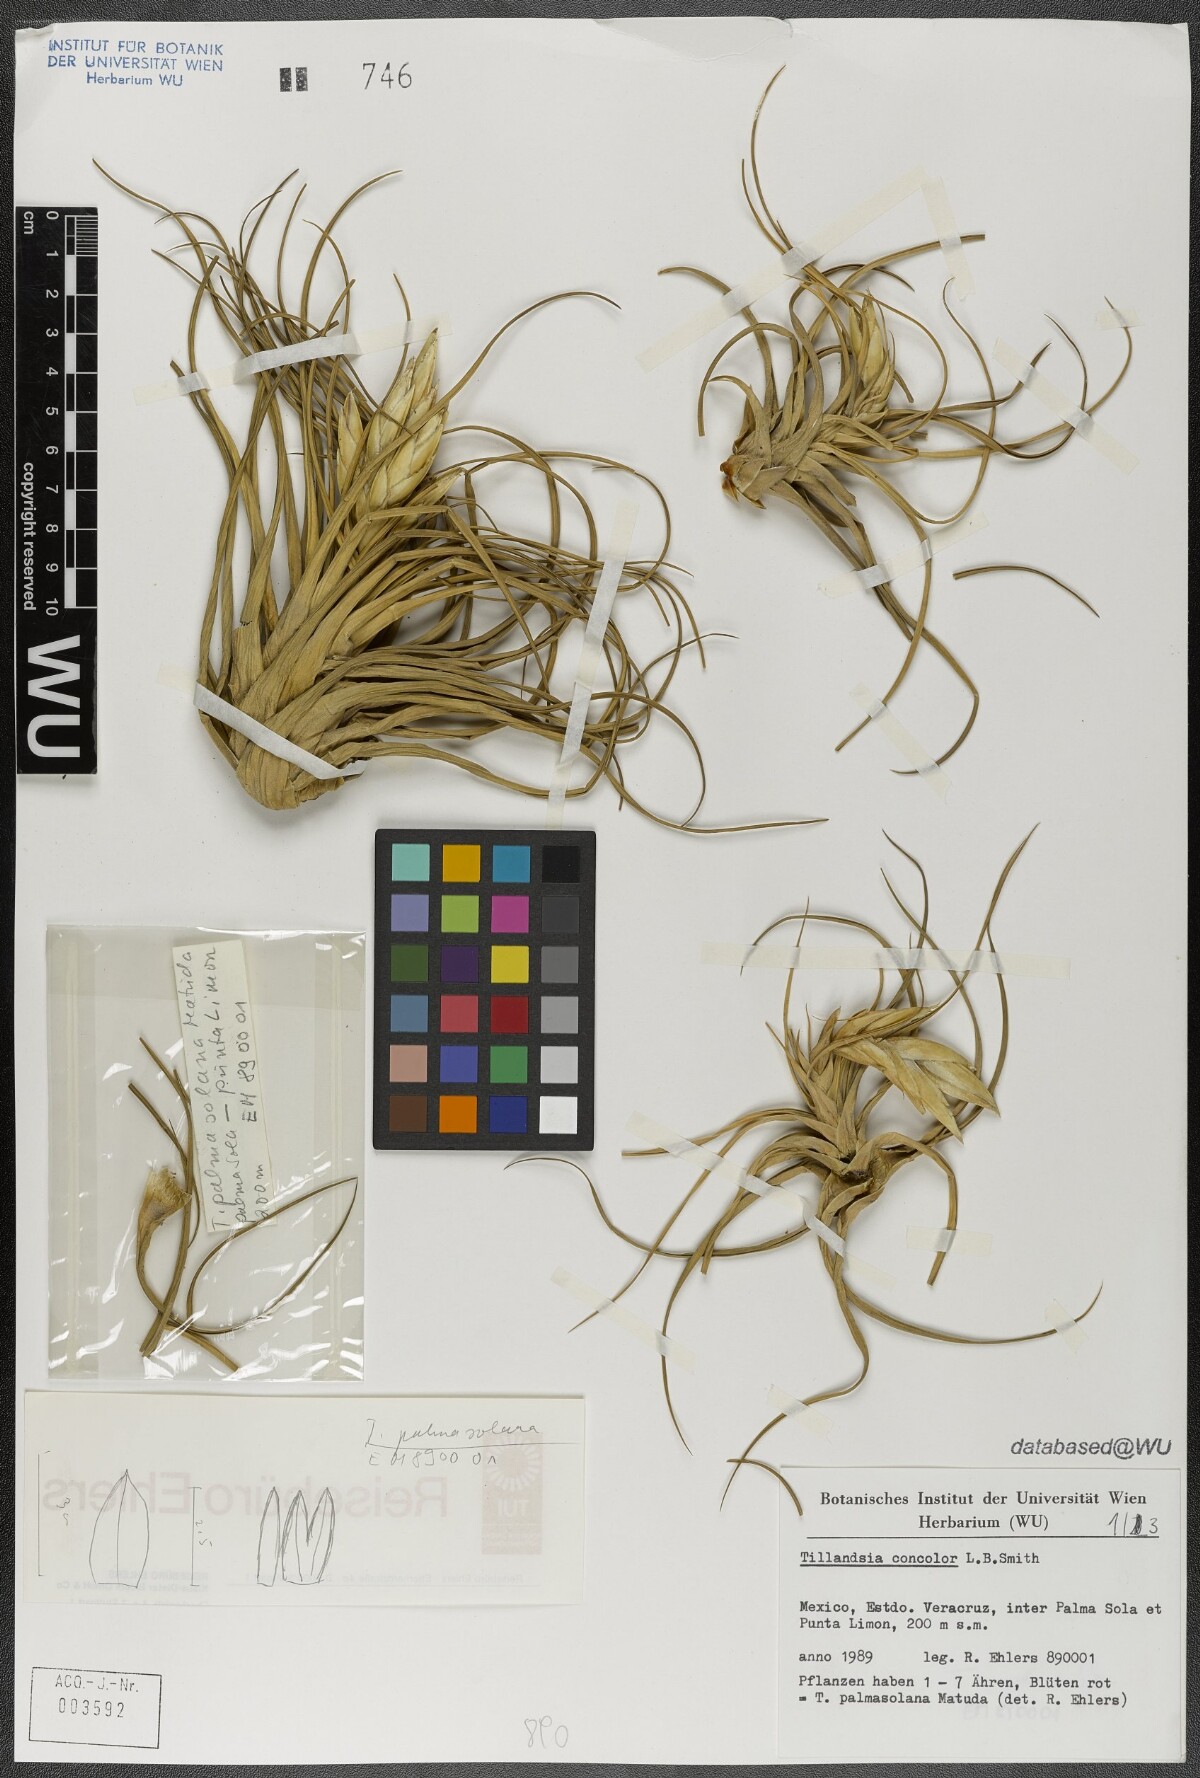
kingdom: Plantae
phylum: Tracheophyta
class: Liliopsida
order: Poales
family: Bromeliaceae
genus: Tillandsia
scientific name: Tillandsia concolor
